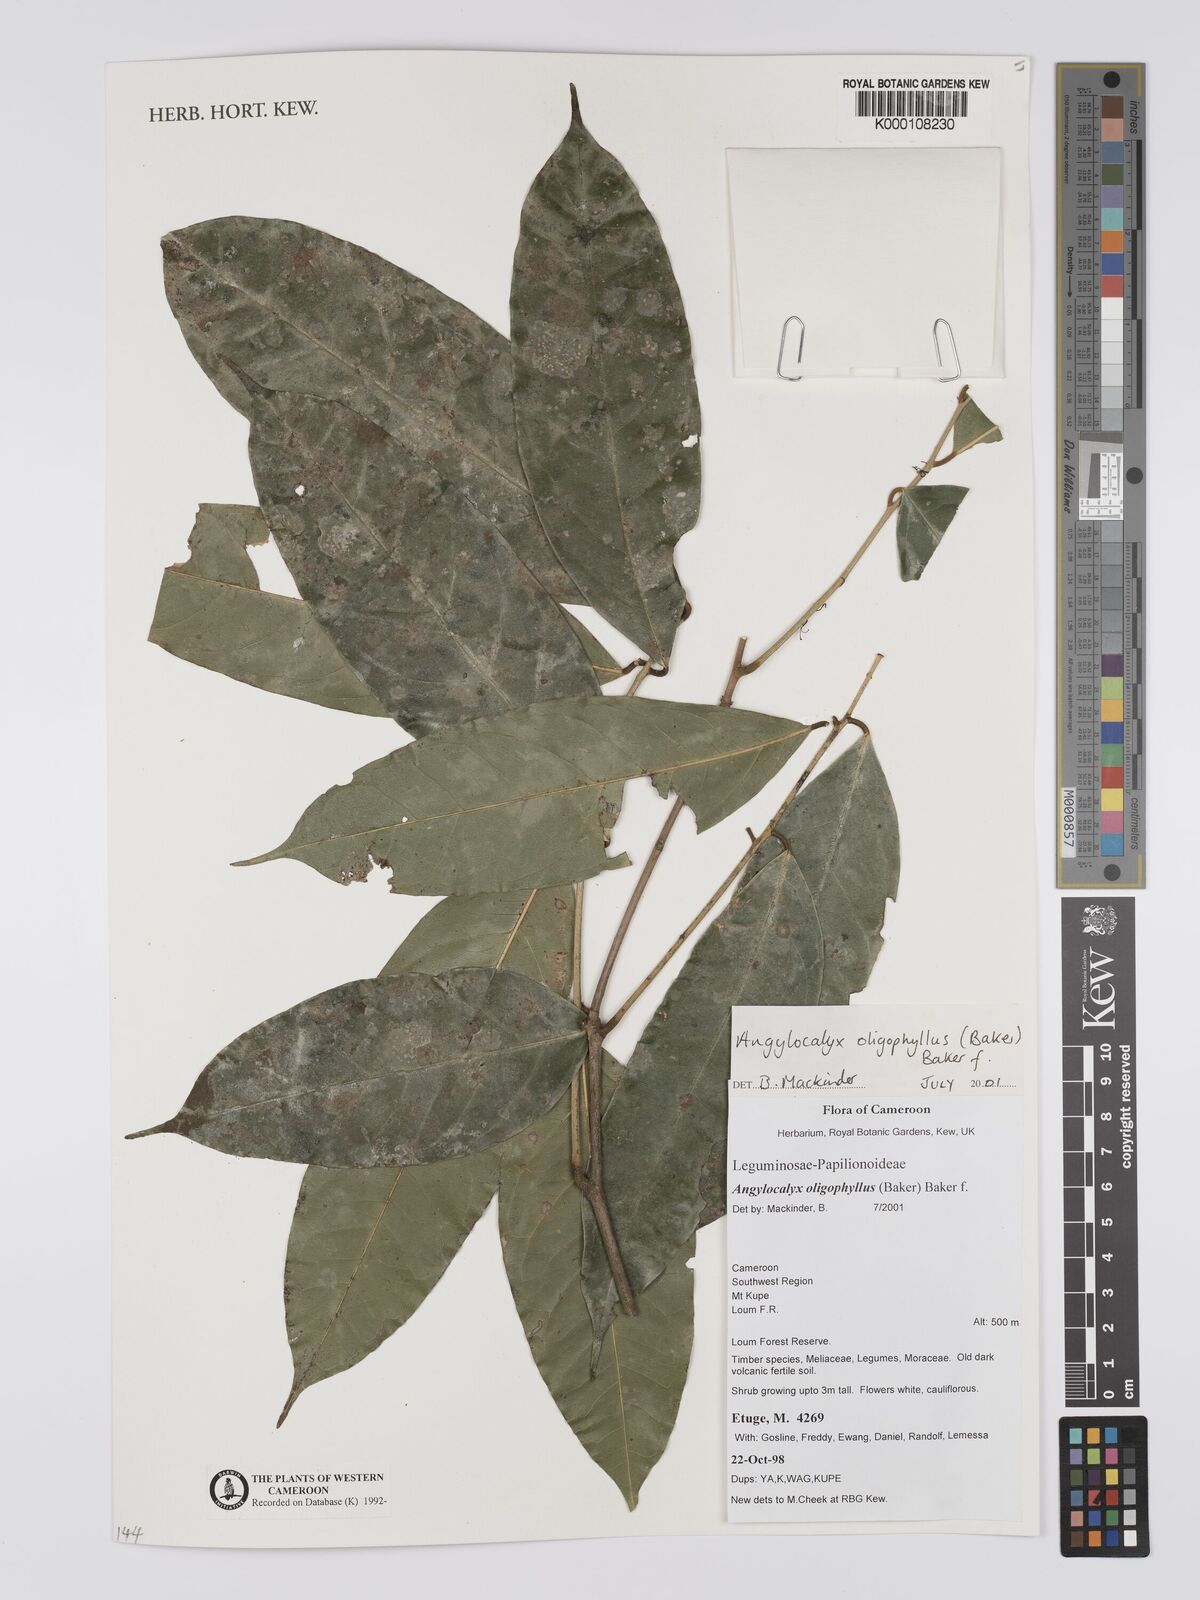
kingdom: Plantae
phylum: Tracheophyta
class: Magnoliopsida
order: Fabales
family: Fabaceae
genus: Angylocalyx
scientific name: Angylocalyx oligophyllus
